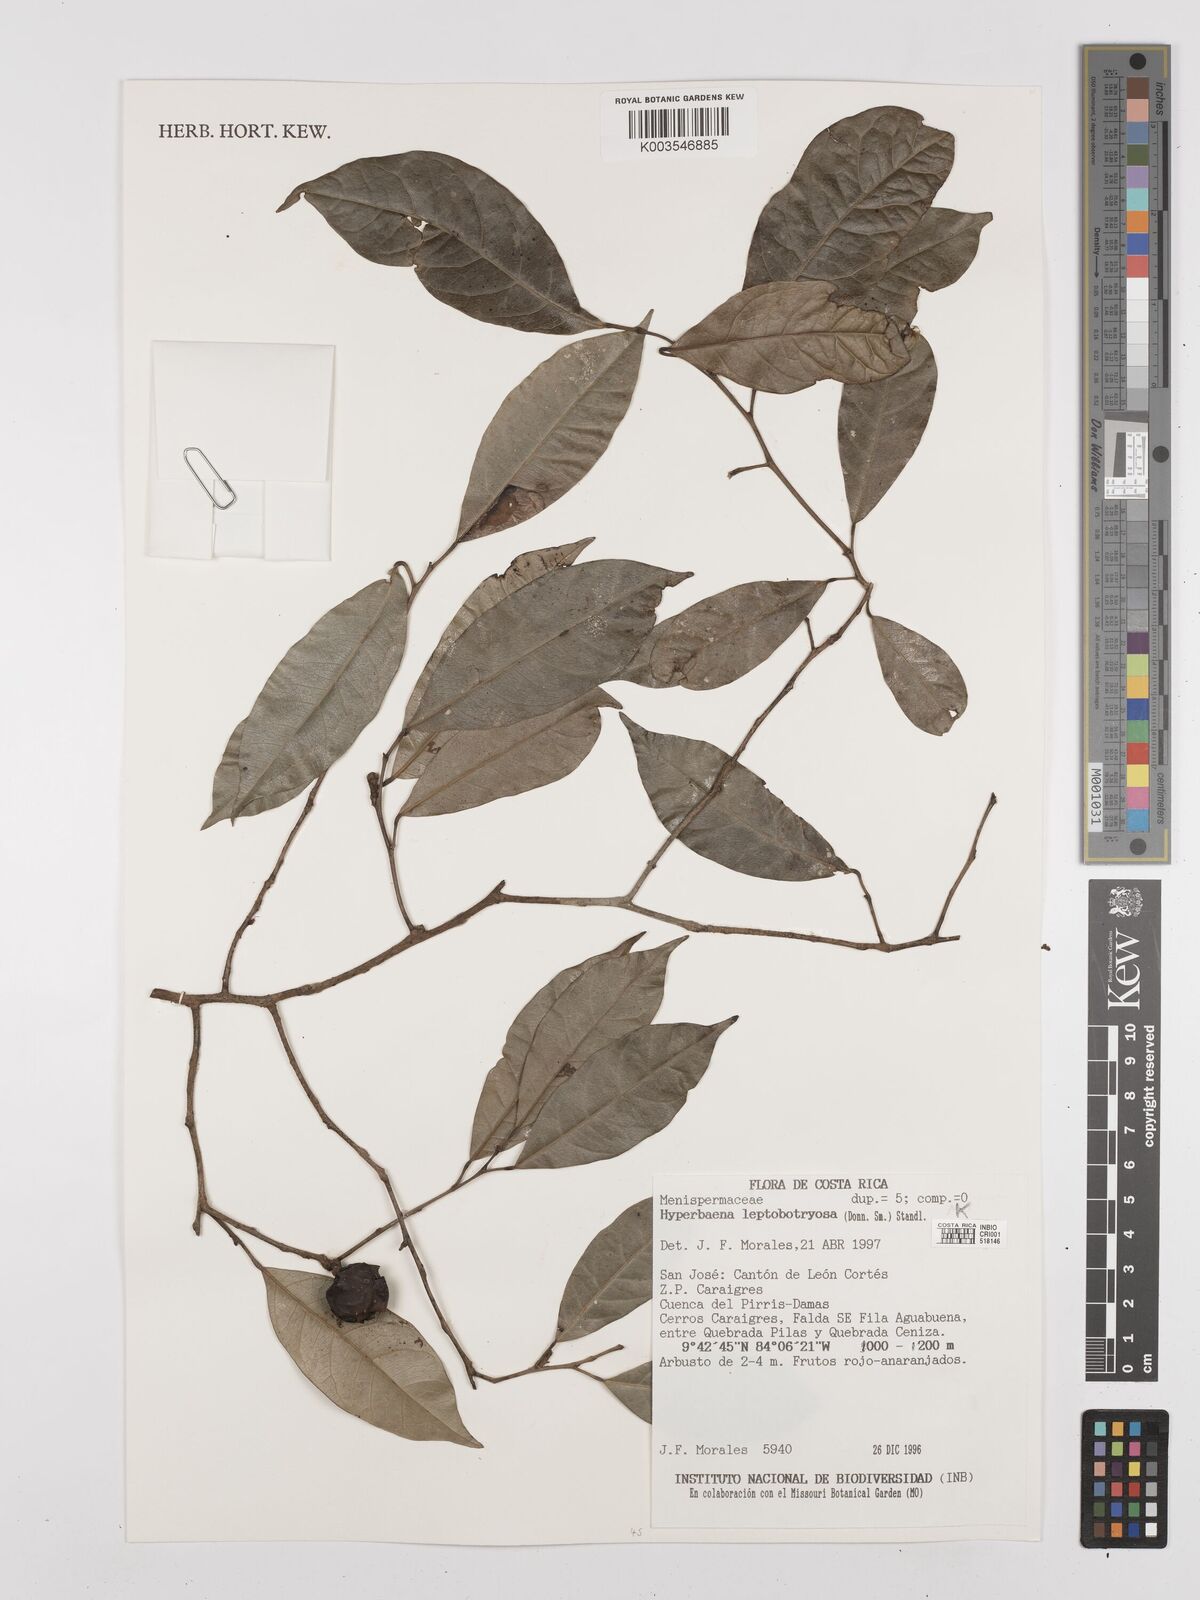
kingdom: Plantae
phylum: Tracheophyta
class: Magnoliopsida
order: Ranunculales
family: Menispermaceae
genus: Hyperbaena
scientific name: Hyperbaena leptobotryosa
